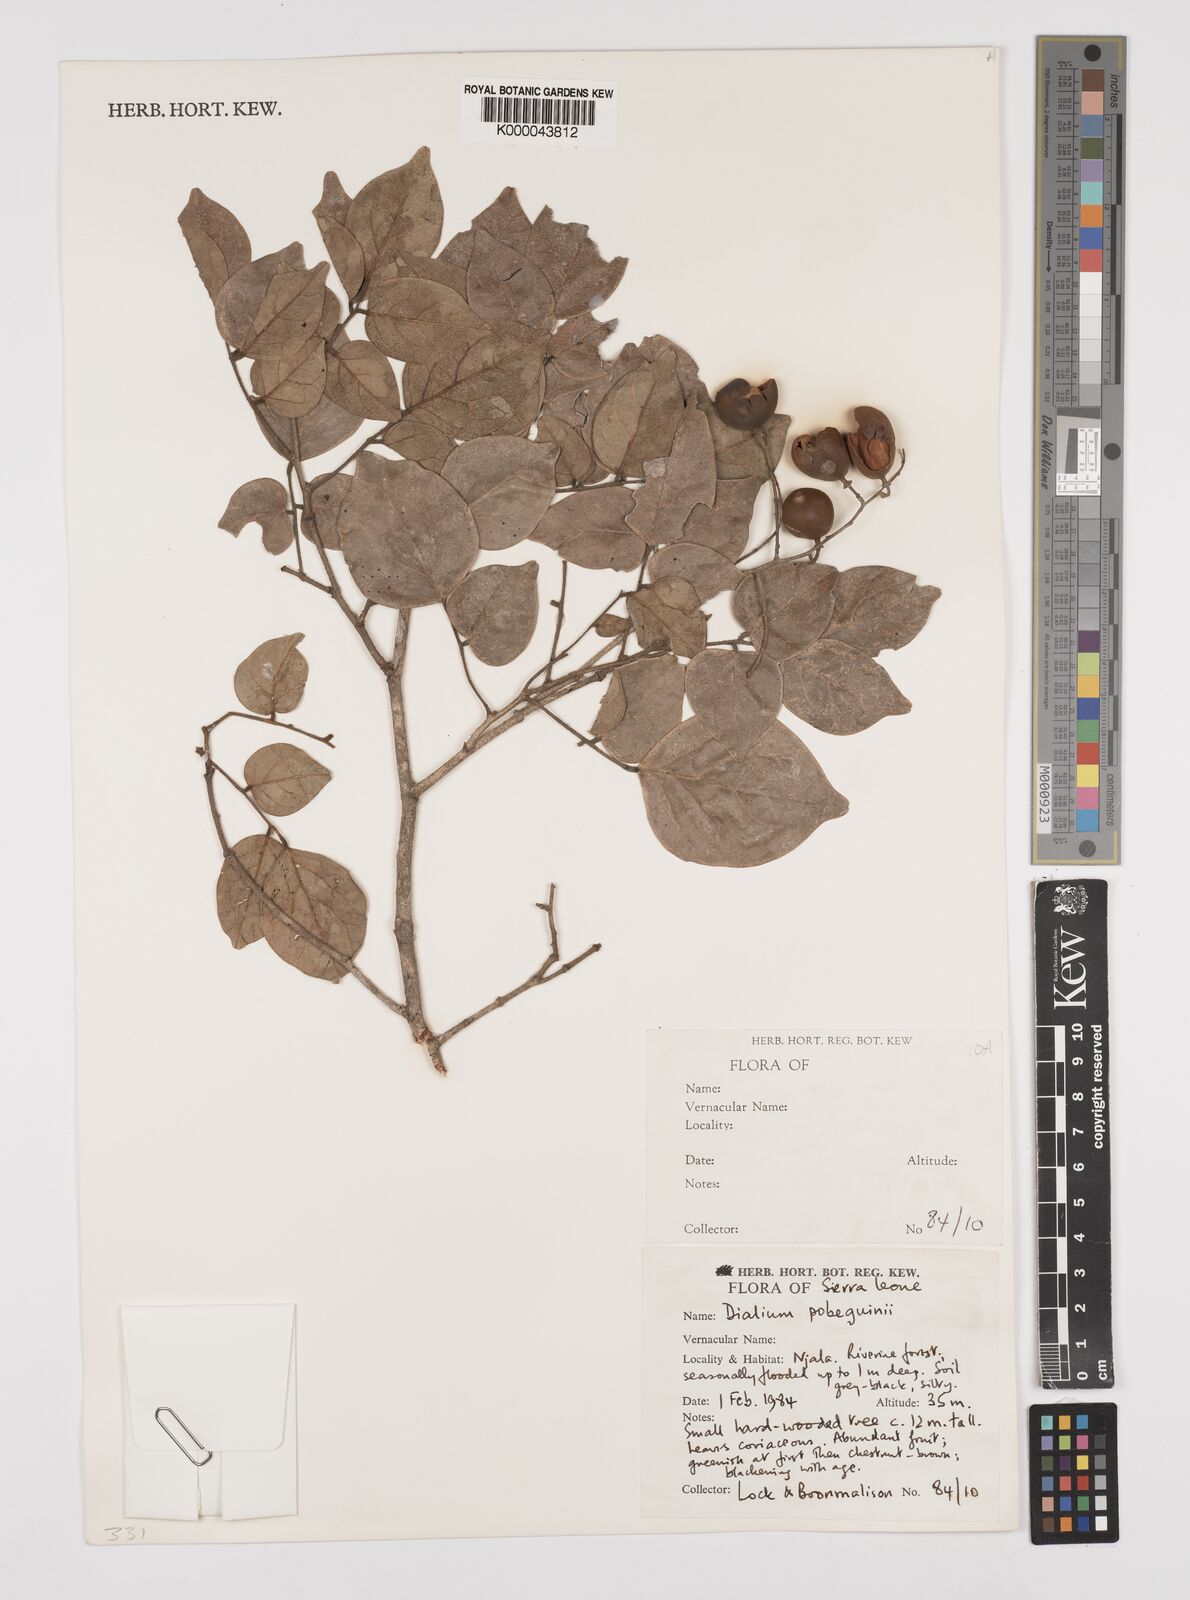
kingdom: Plantae
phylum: Tracheophyta
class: Magnoliopsida
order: Fabales
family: Fabaceae
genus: Dialium
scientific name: Dialium
